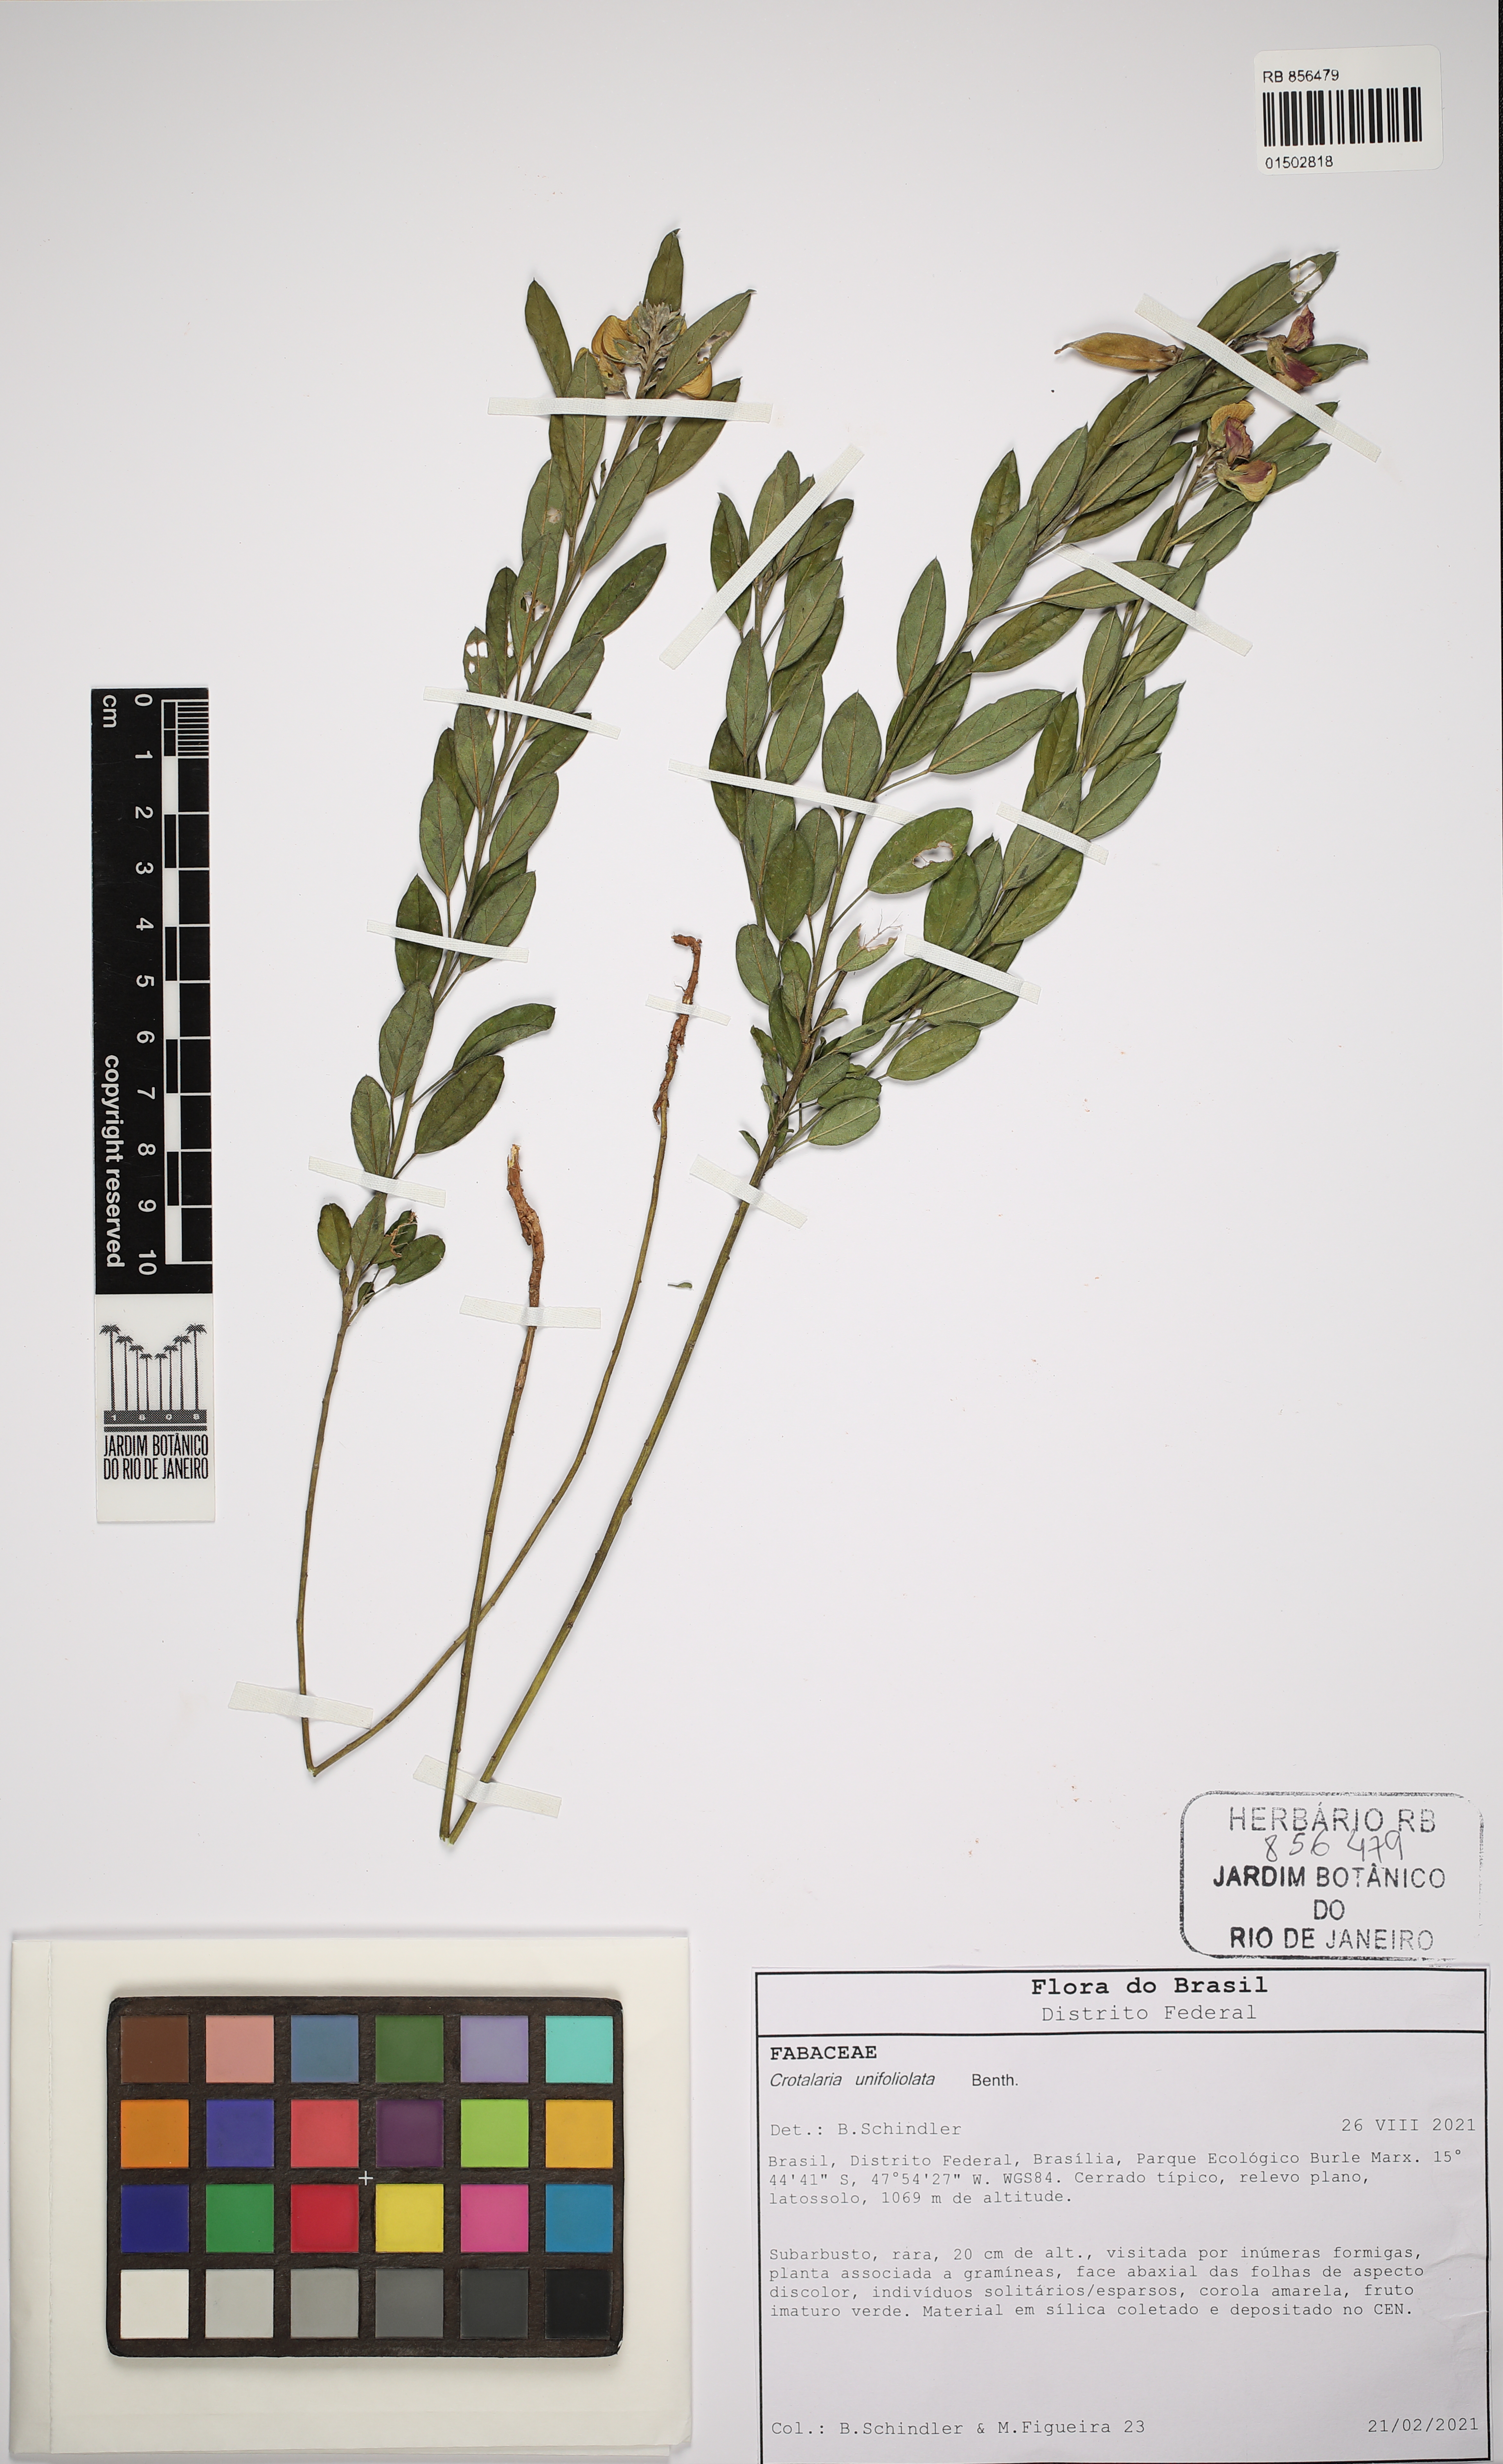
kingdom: Plantae
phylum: Tracheophyta
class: Magnoliopsida
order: Fabales
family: Fabaceae
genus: Crotalaria
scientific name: Crotalaria unifoliolata
